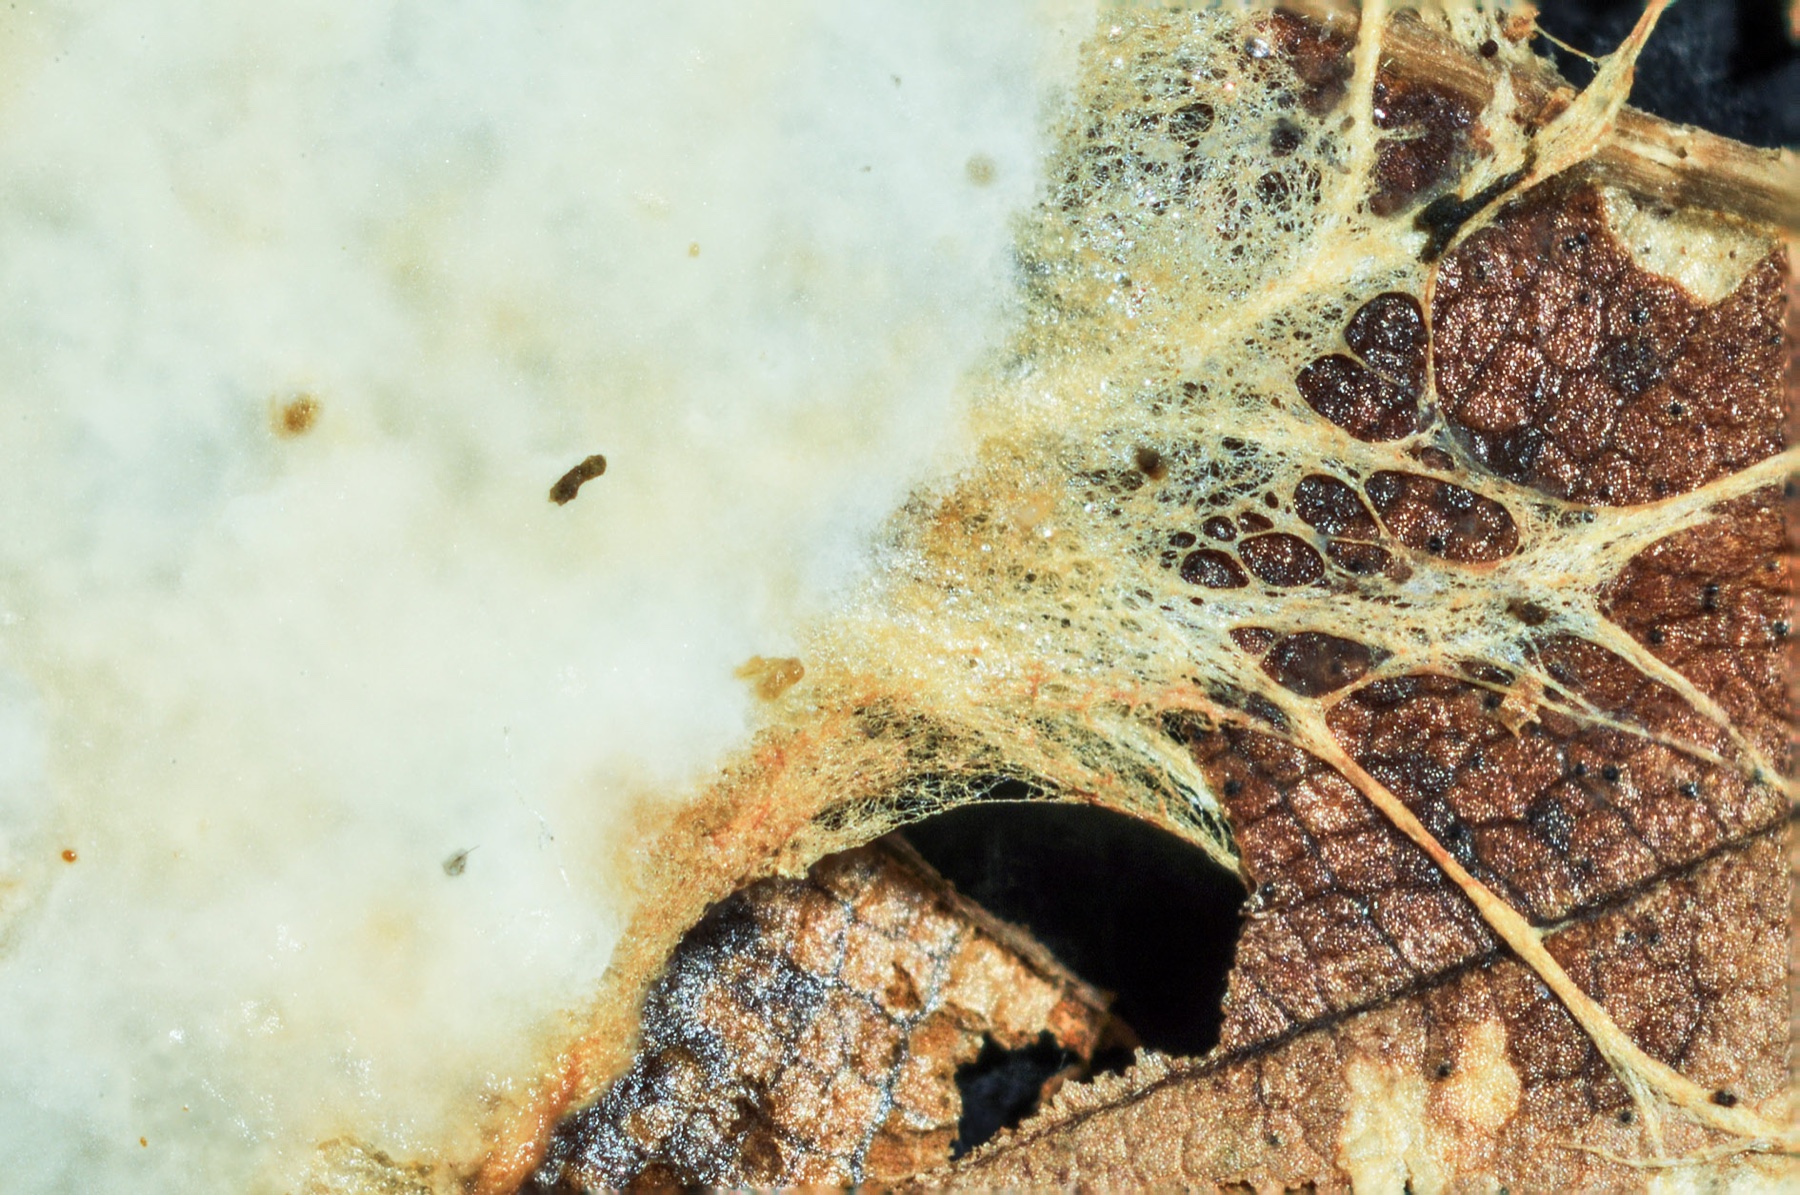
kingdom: Fungi
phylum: Basidiomycota
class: Agaricomycetes
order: Polyporales
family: Phanerochaetaceae
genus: Rhizochaete
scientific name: Rhizochaete violascens
